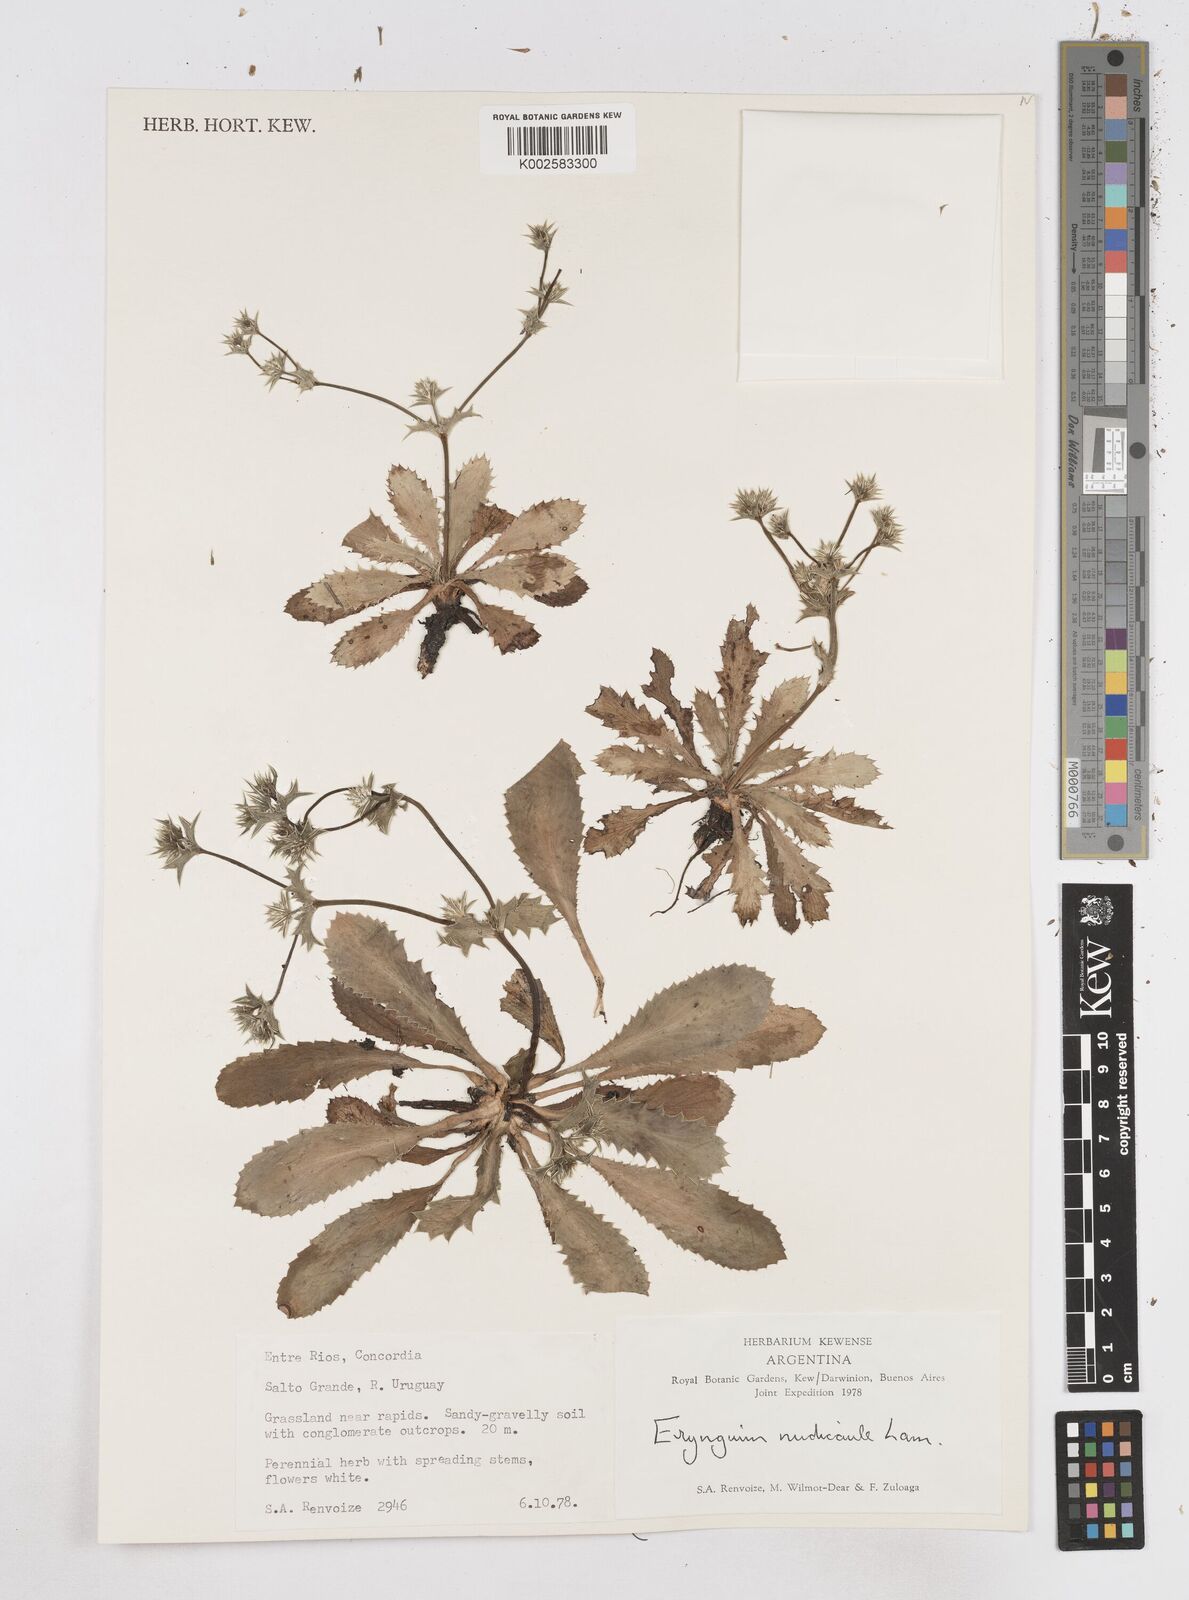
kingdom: Plantae
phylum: Tracheophyta
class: Magnoliopsida
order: Apiales
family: Apiaceae
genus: Eryngium
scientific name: Eryngium nudicaule
